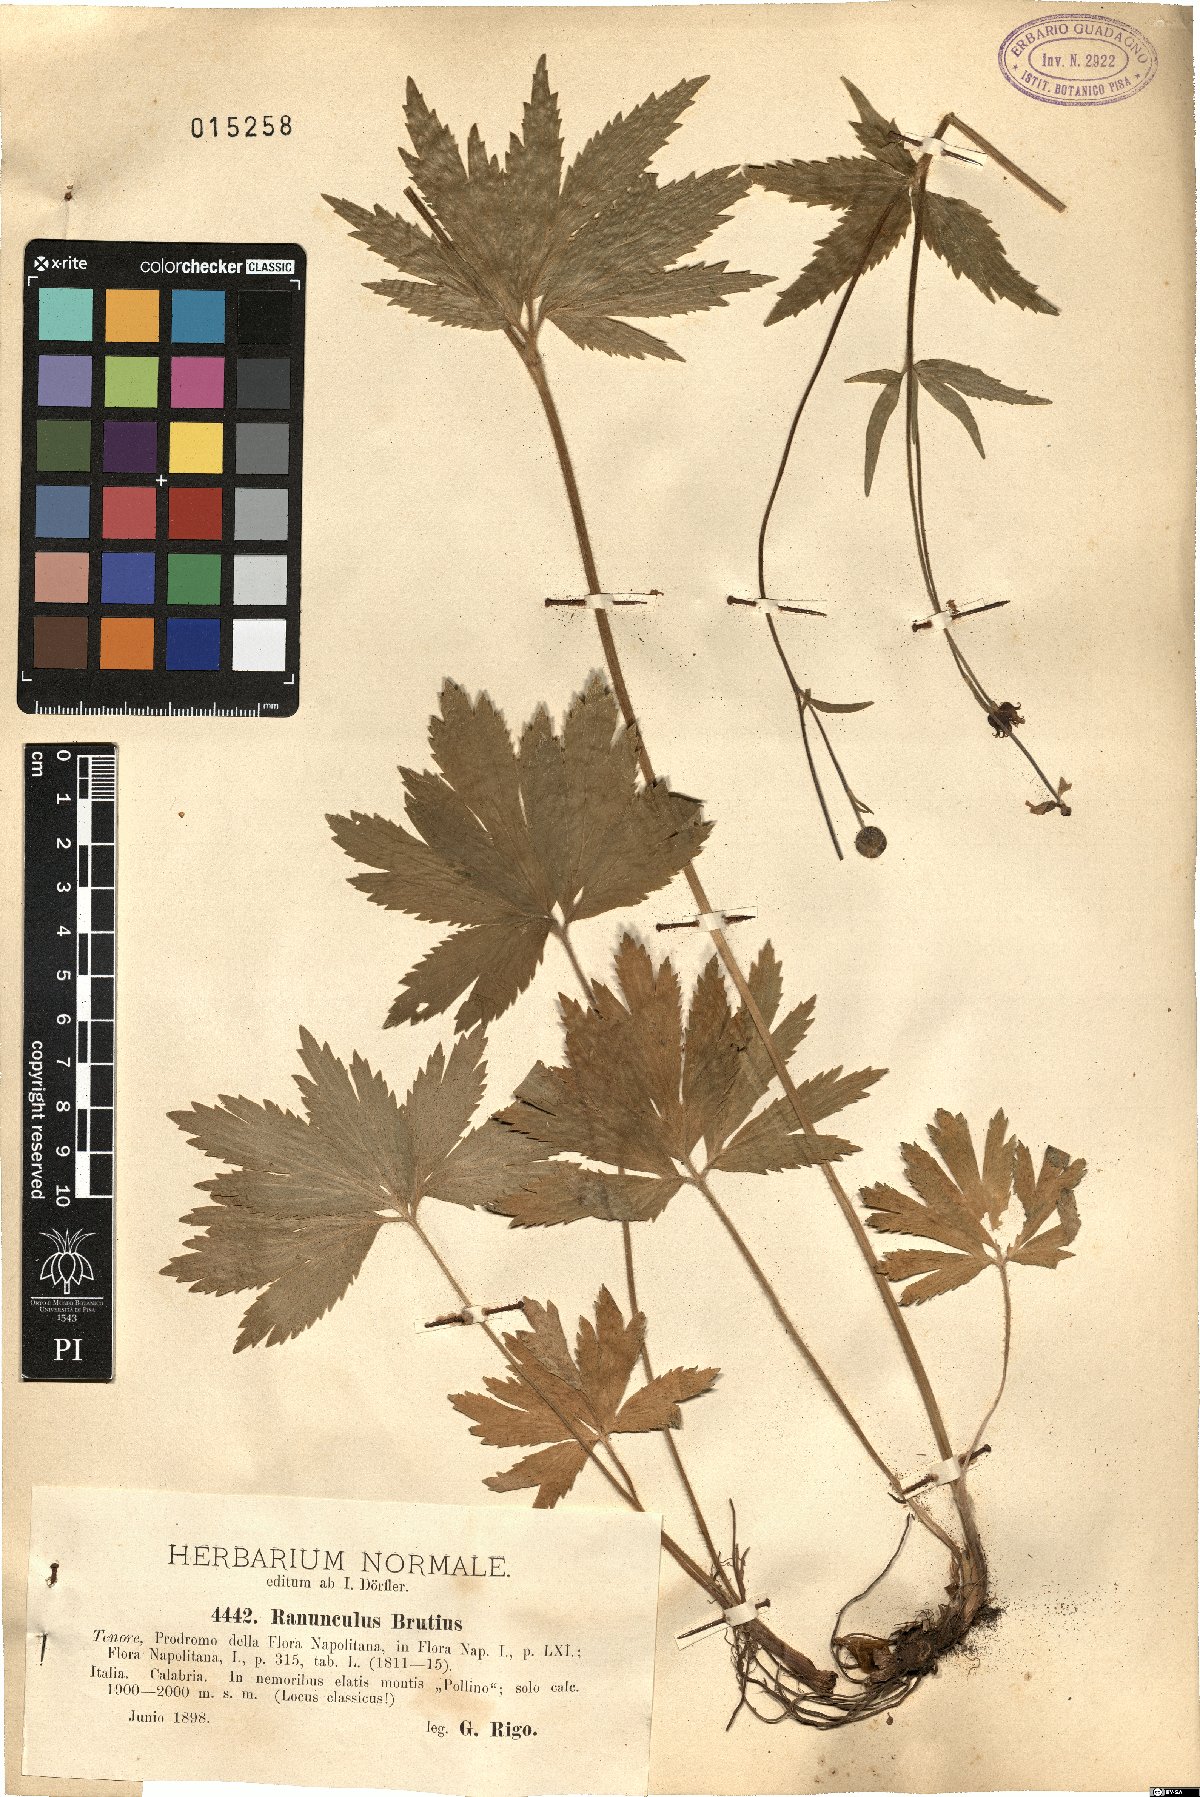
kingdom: Plantae
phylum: Tracheophyta
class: Magnoliopsida
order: Ranunculales
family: Ranunculaceae
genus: Ranunculus
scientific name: Ranunculus brutius
